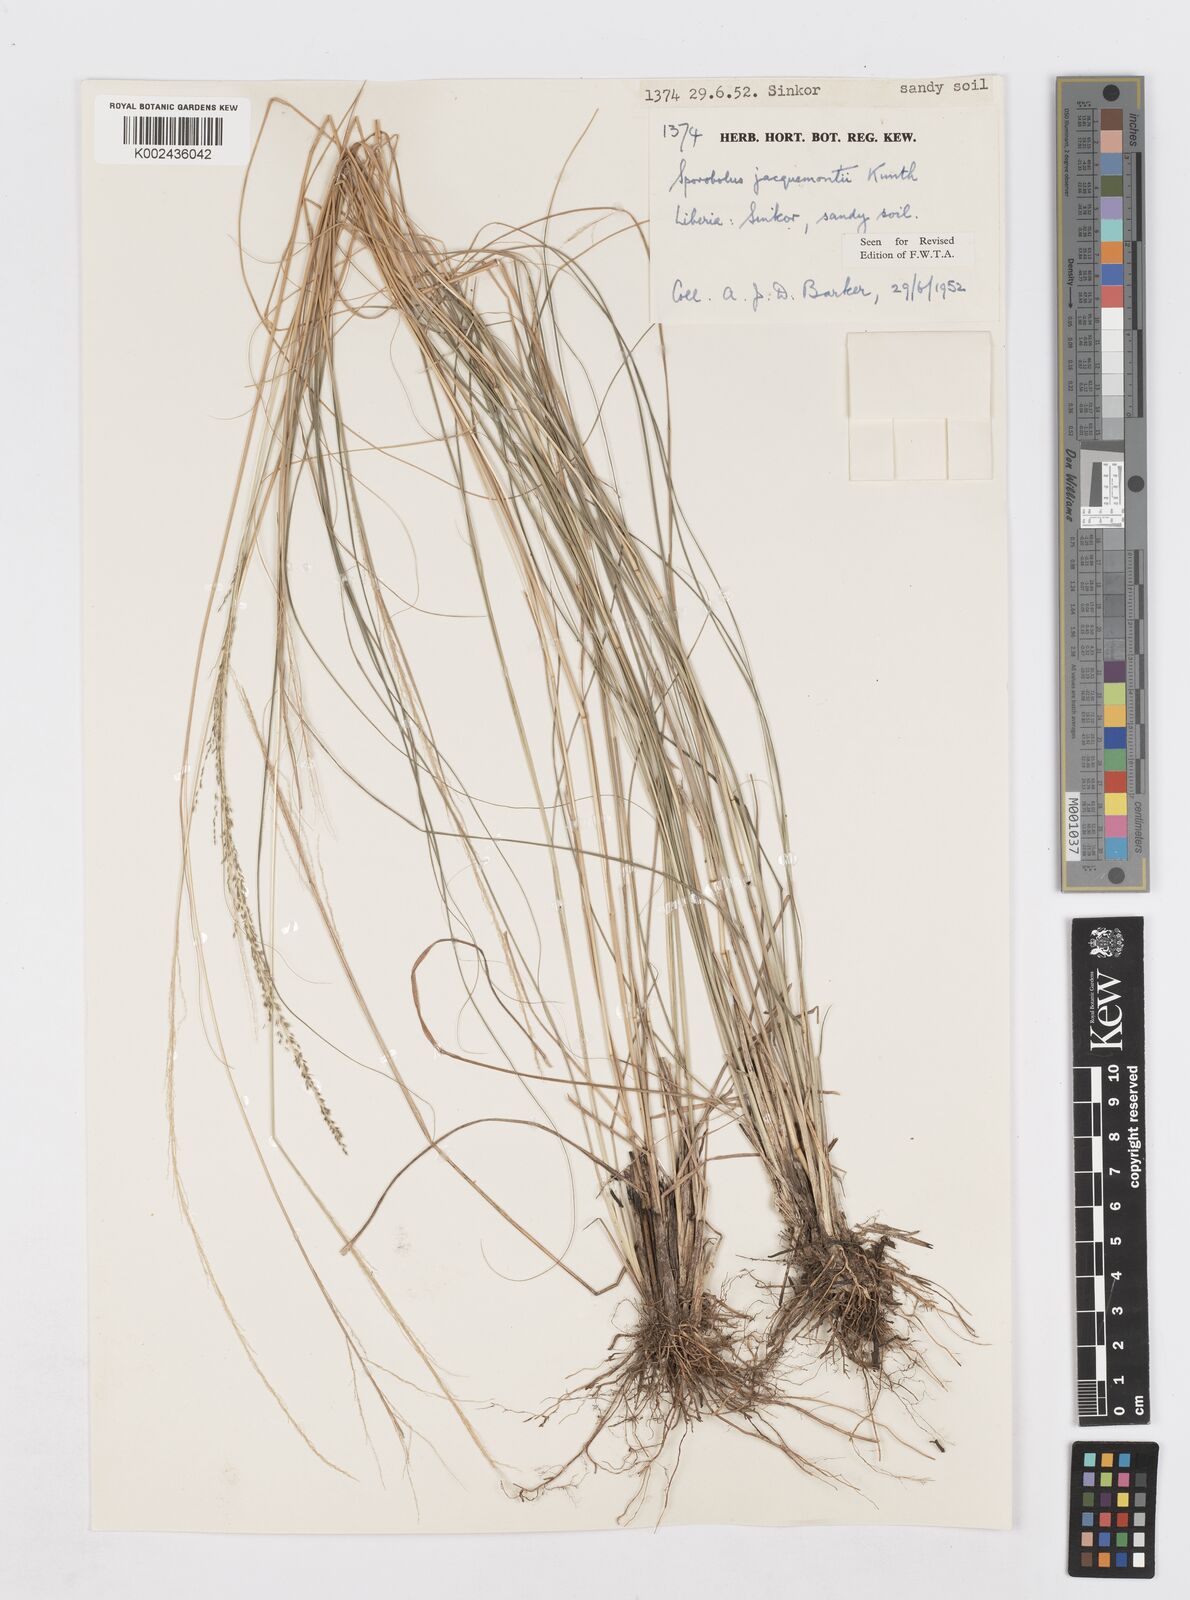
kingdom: Plantae
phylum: Tracheophyta
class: Liliopsida
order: Poales
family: Poaceae
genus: Sporobolus
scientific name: Sporobolus pyramidalis
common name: West indian dropseed
